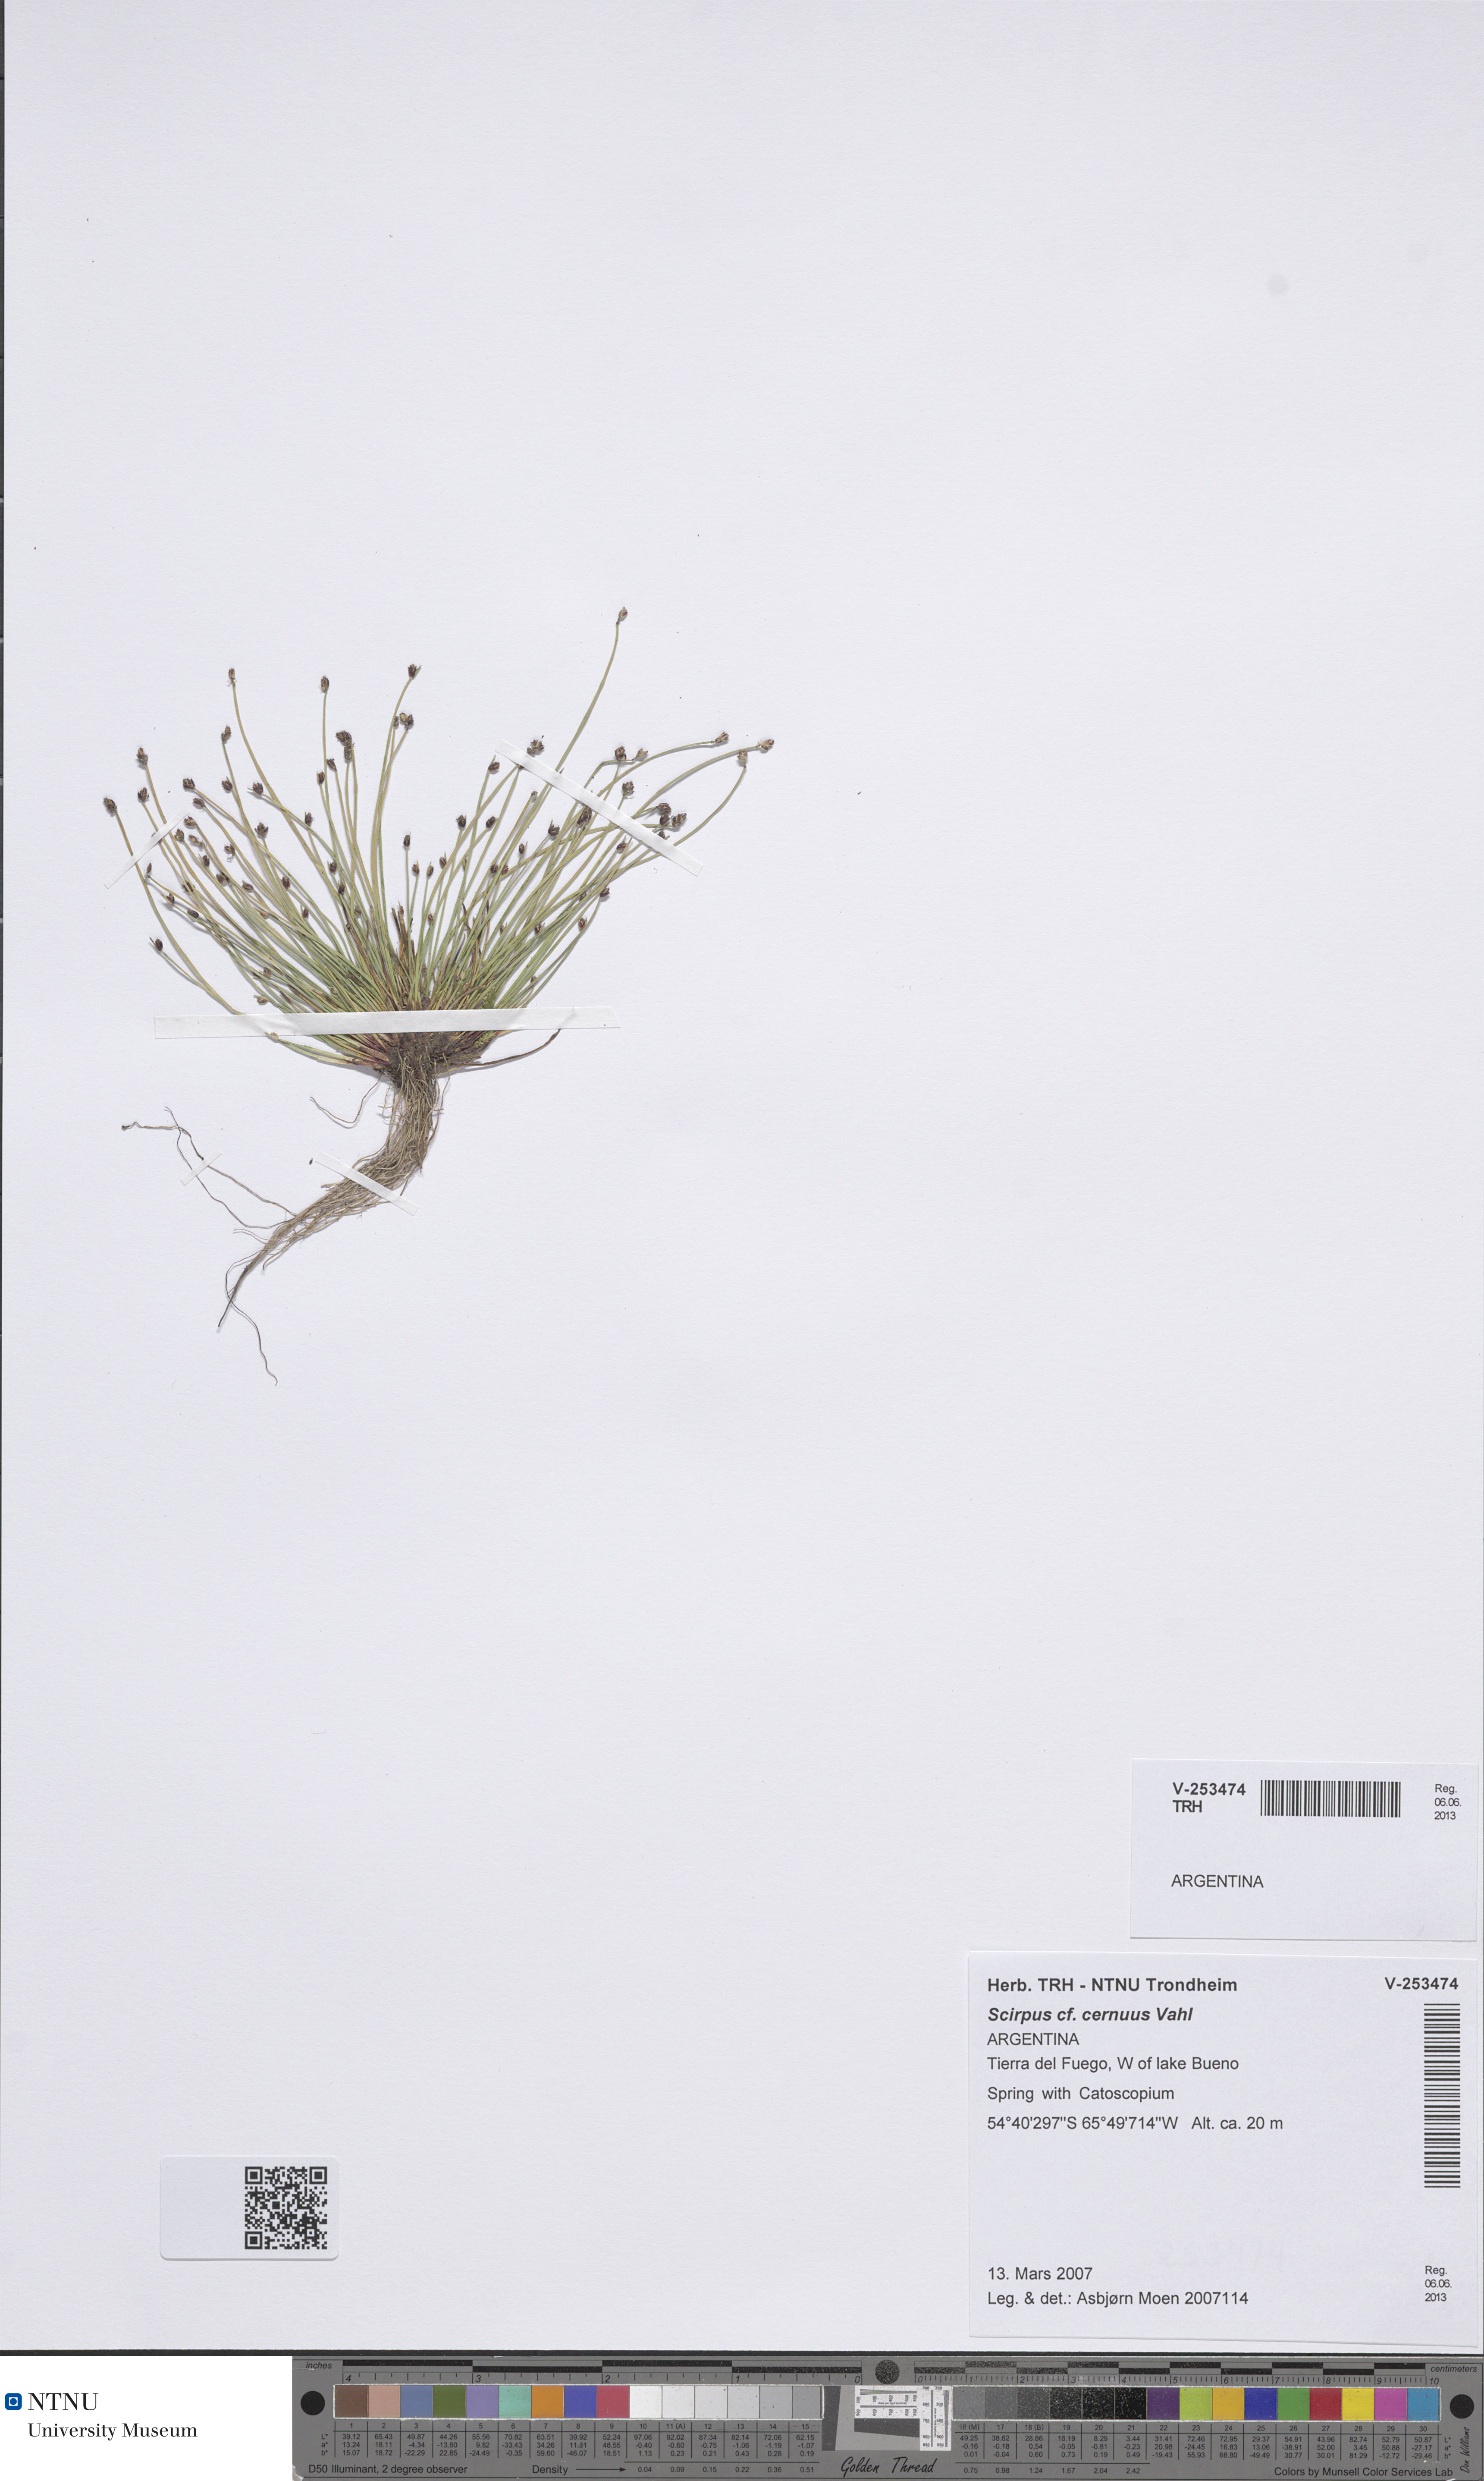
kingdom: Plantae
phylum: Tracheophyta
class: Liliopsida
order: Poales
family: Cyperaceae
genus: Isolepis
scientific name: Isolepis cernua
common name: Slender club-rush
